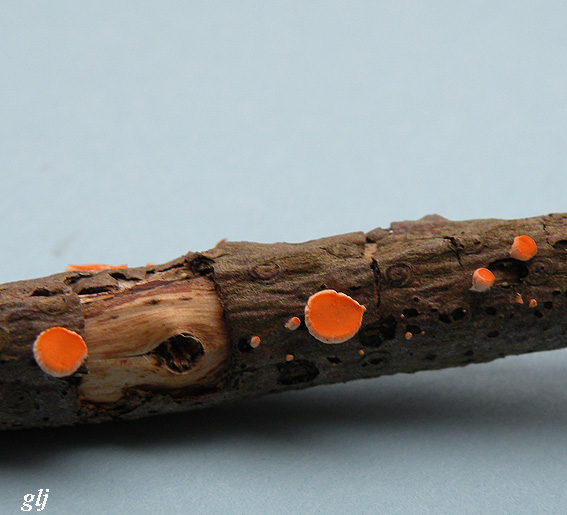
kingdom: Fungi
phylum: Ascomycota
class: Pezizomycetes
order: Pezizales
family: Sarcoscyphaceae
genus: Pithya
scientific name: Pithya vulgaris
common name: stor dukatbæger
